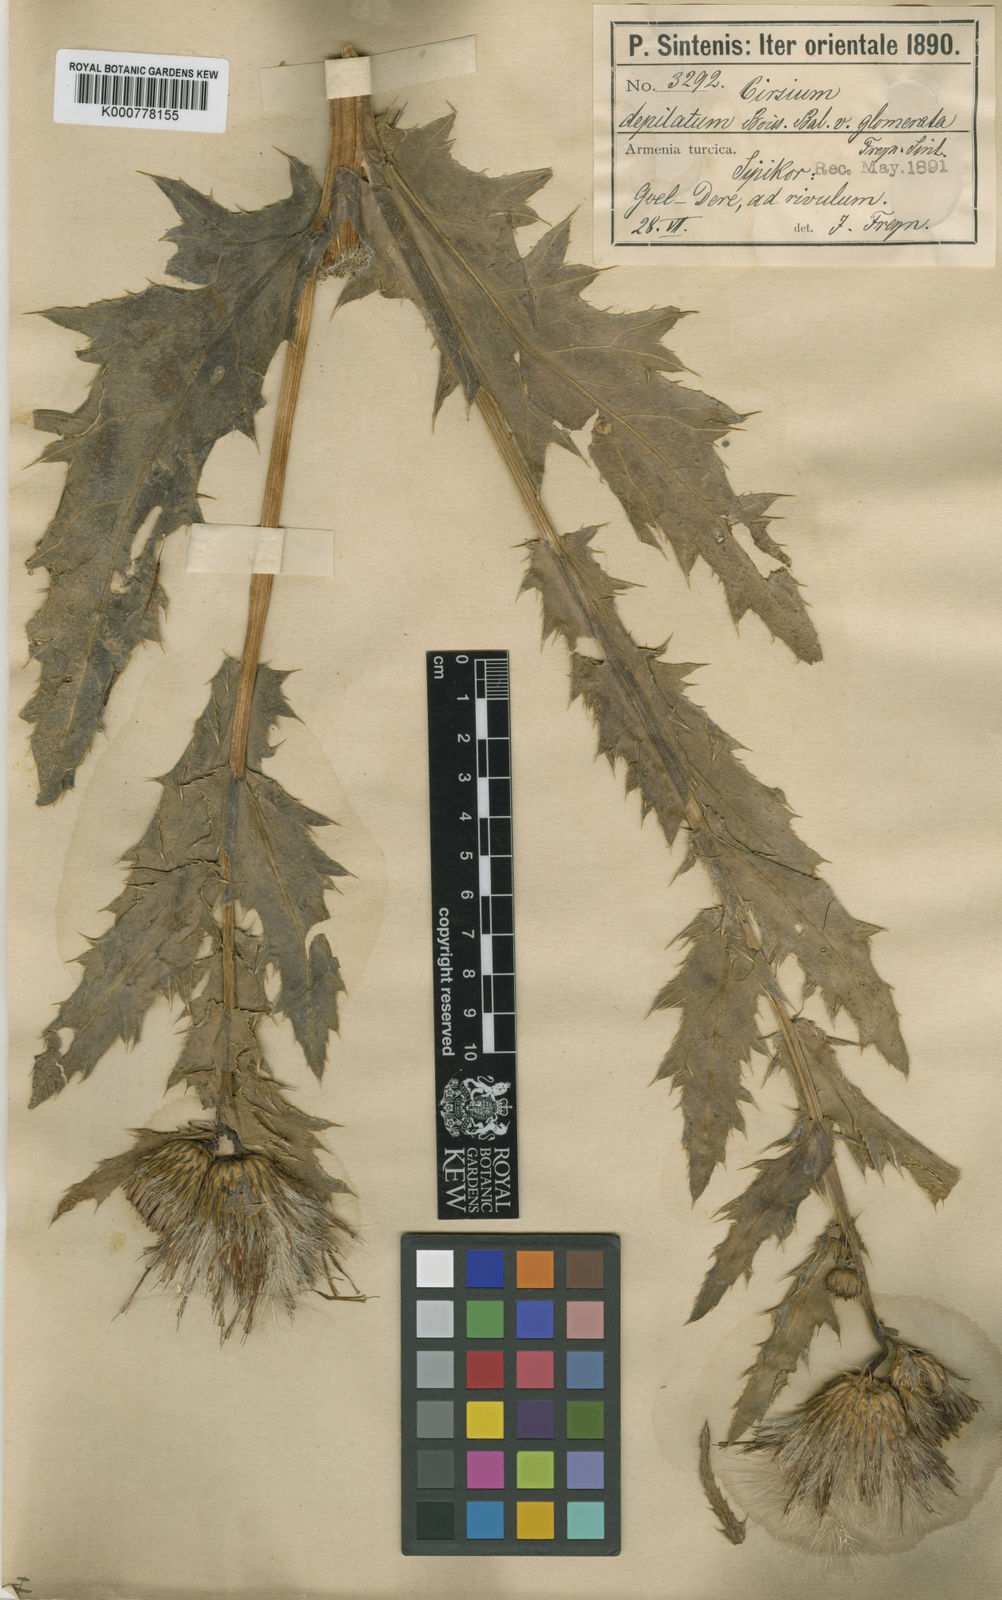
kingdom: Plantae
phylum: Tracheophyta
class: Magnoliopsida
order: Asterales
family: Asteraceae
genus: Cirsium
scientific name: Cirsium pubigerum
